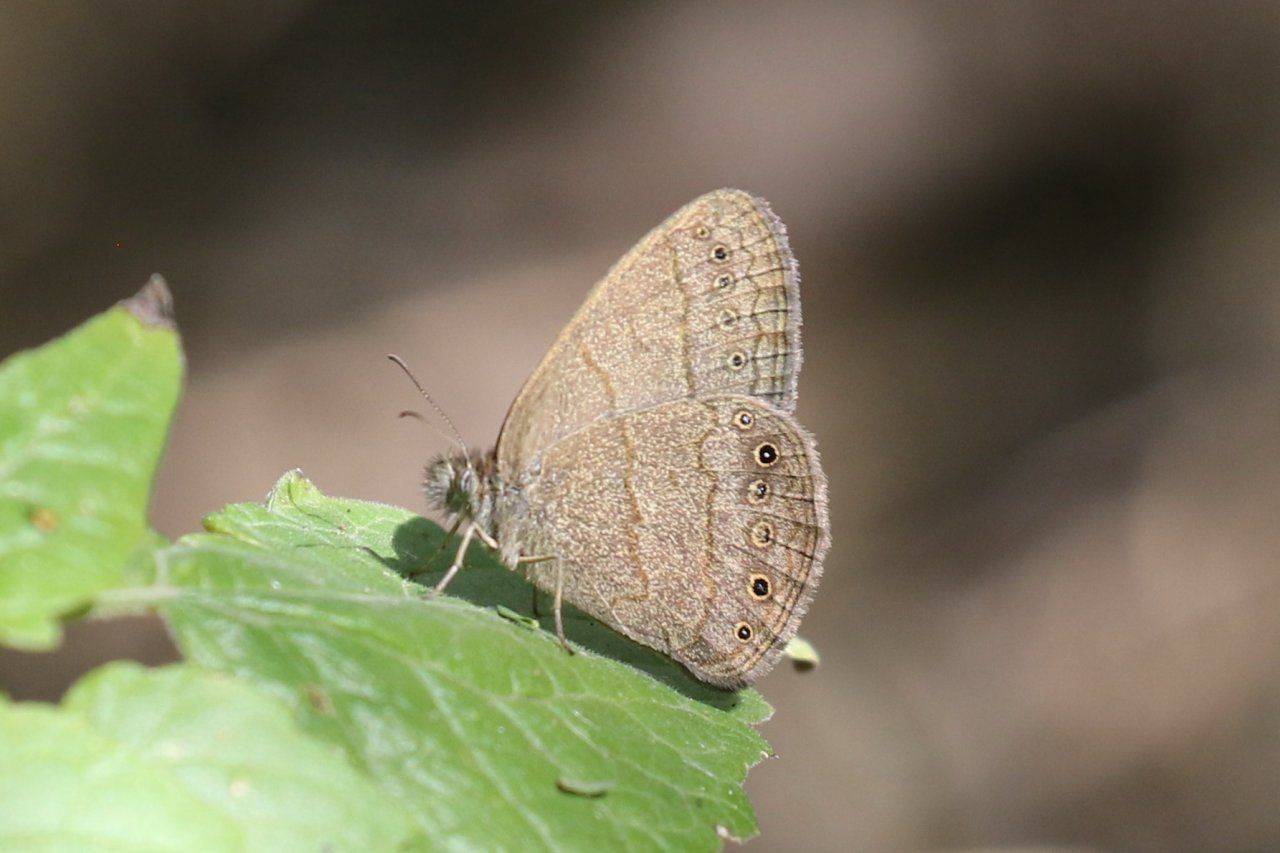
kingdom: Animalia
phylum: Arthropoda
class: Insecta
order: Lepidoptera
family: Nymphalidae
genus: Hermeuptychia
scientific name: Hermeuptychia hermybius
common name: South Texas Satyr
